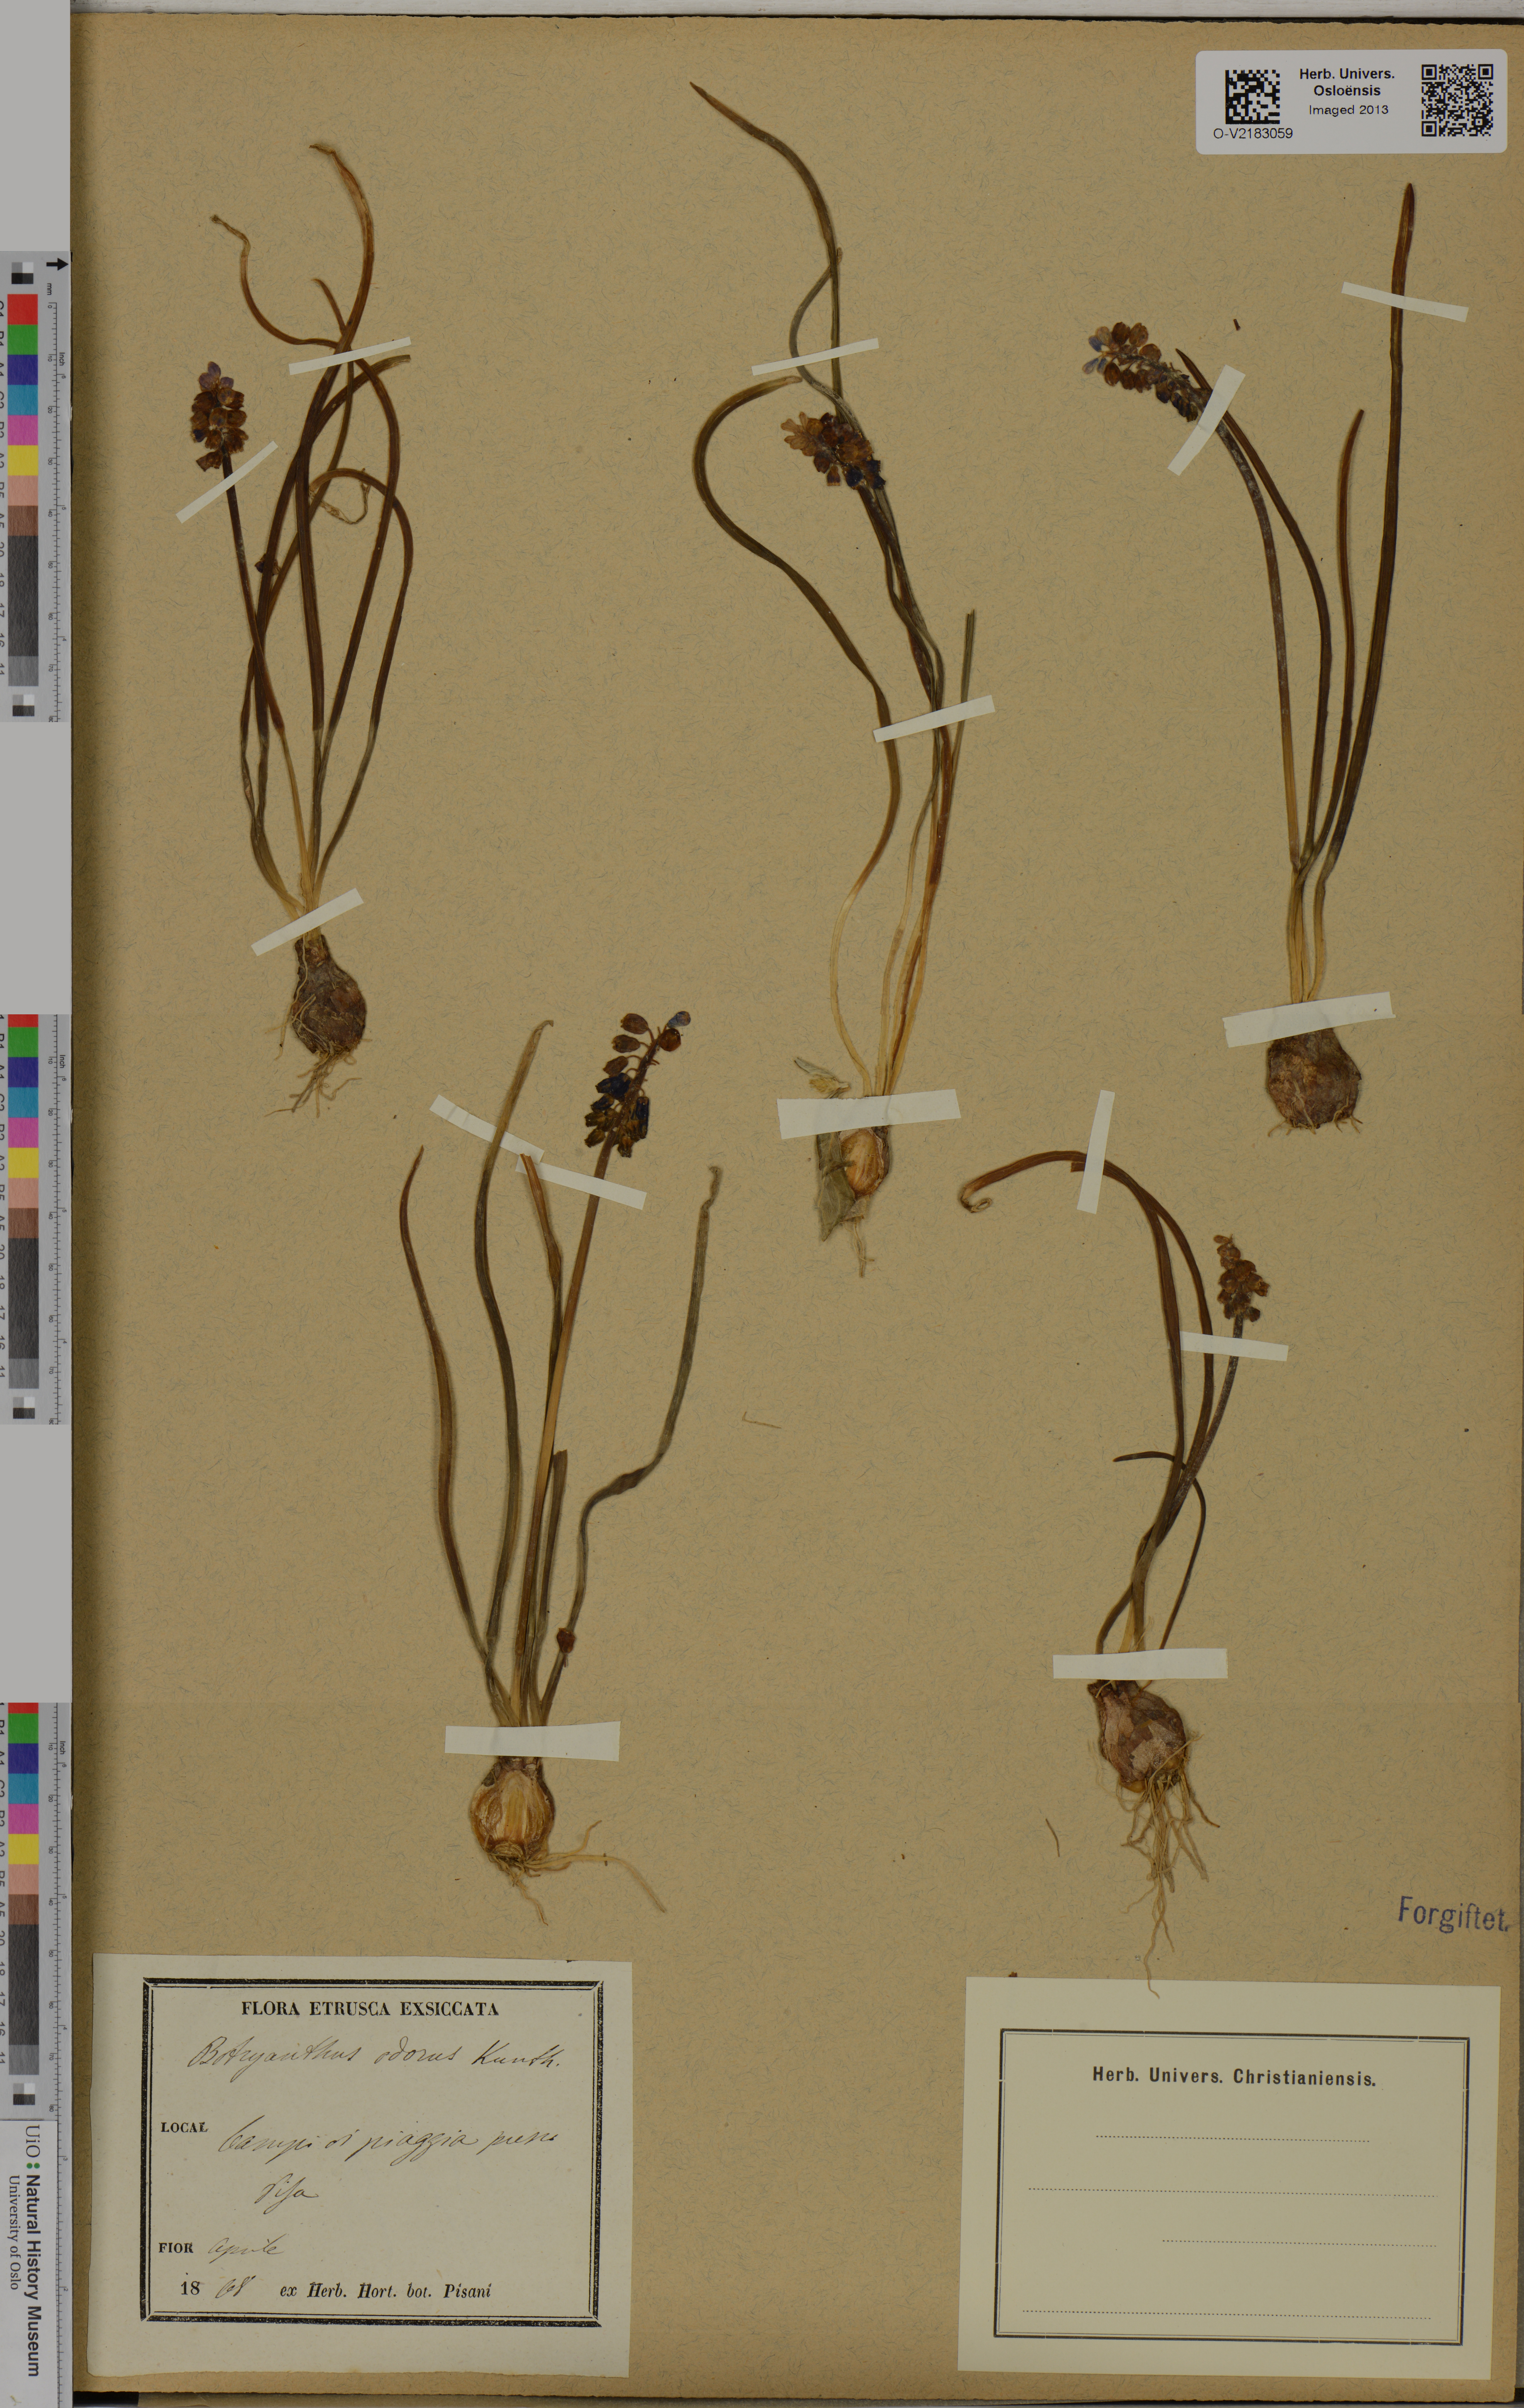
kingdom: Plantae
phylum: Tracheophyta
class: Liliopsida
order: Asparagales
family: Asparagaceae
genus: Muscari
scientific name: Muscari neglectum
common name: Grape-hyacinth
